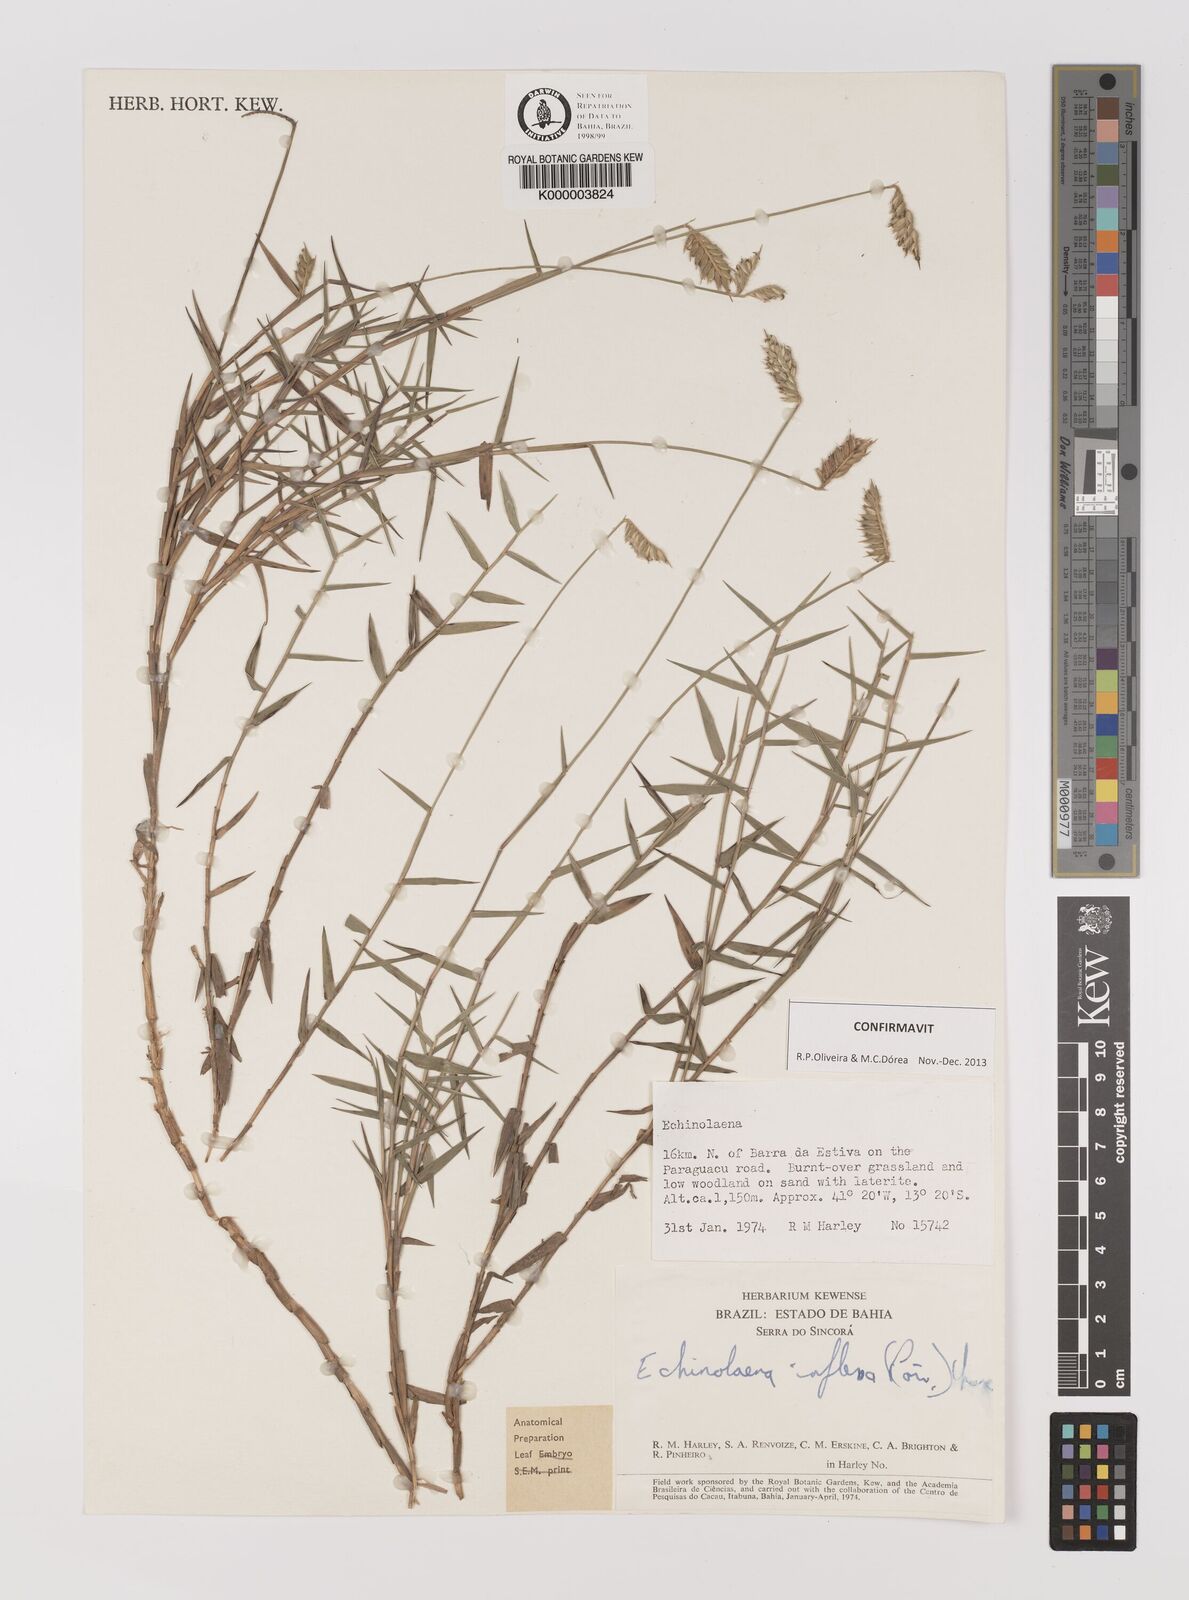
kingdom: Plantae
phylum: Tracheophyta
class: Liliopsida
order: Poales
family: Poaceae
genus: Echinolaena
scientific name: Echinolaena inflexa
